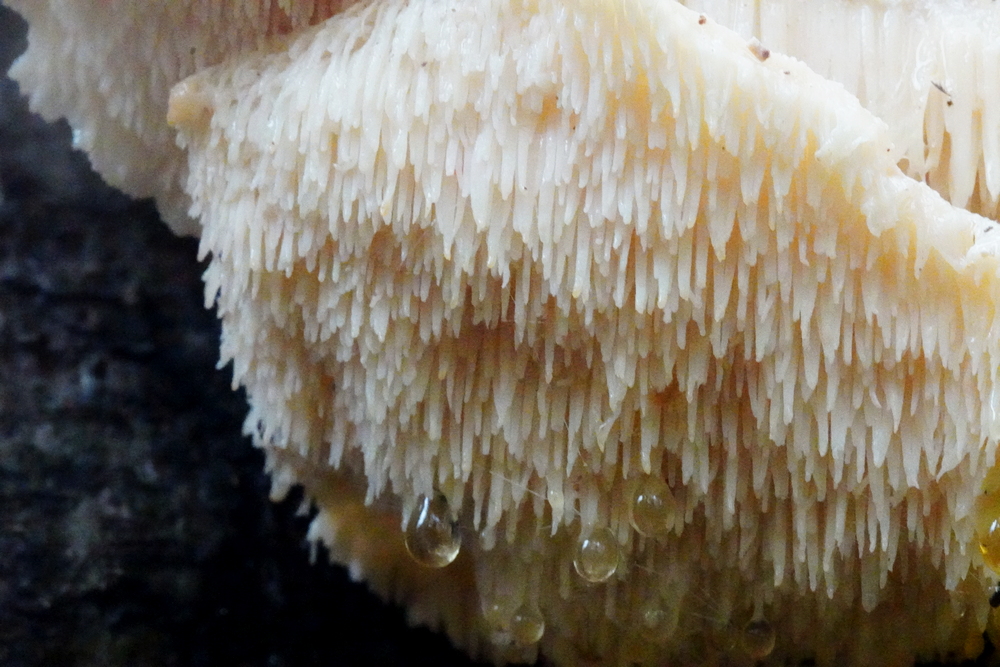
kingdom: Fungi
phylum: Basidiomycota
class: Agaricomycetes
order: Russulales
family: Hericiaceae
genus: Hericium
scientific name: Hericium cirrhatum
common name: børstepigsvamp
